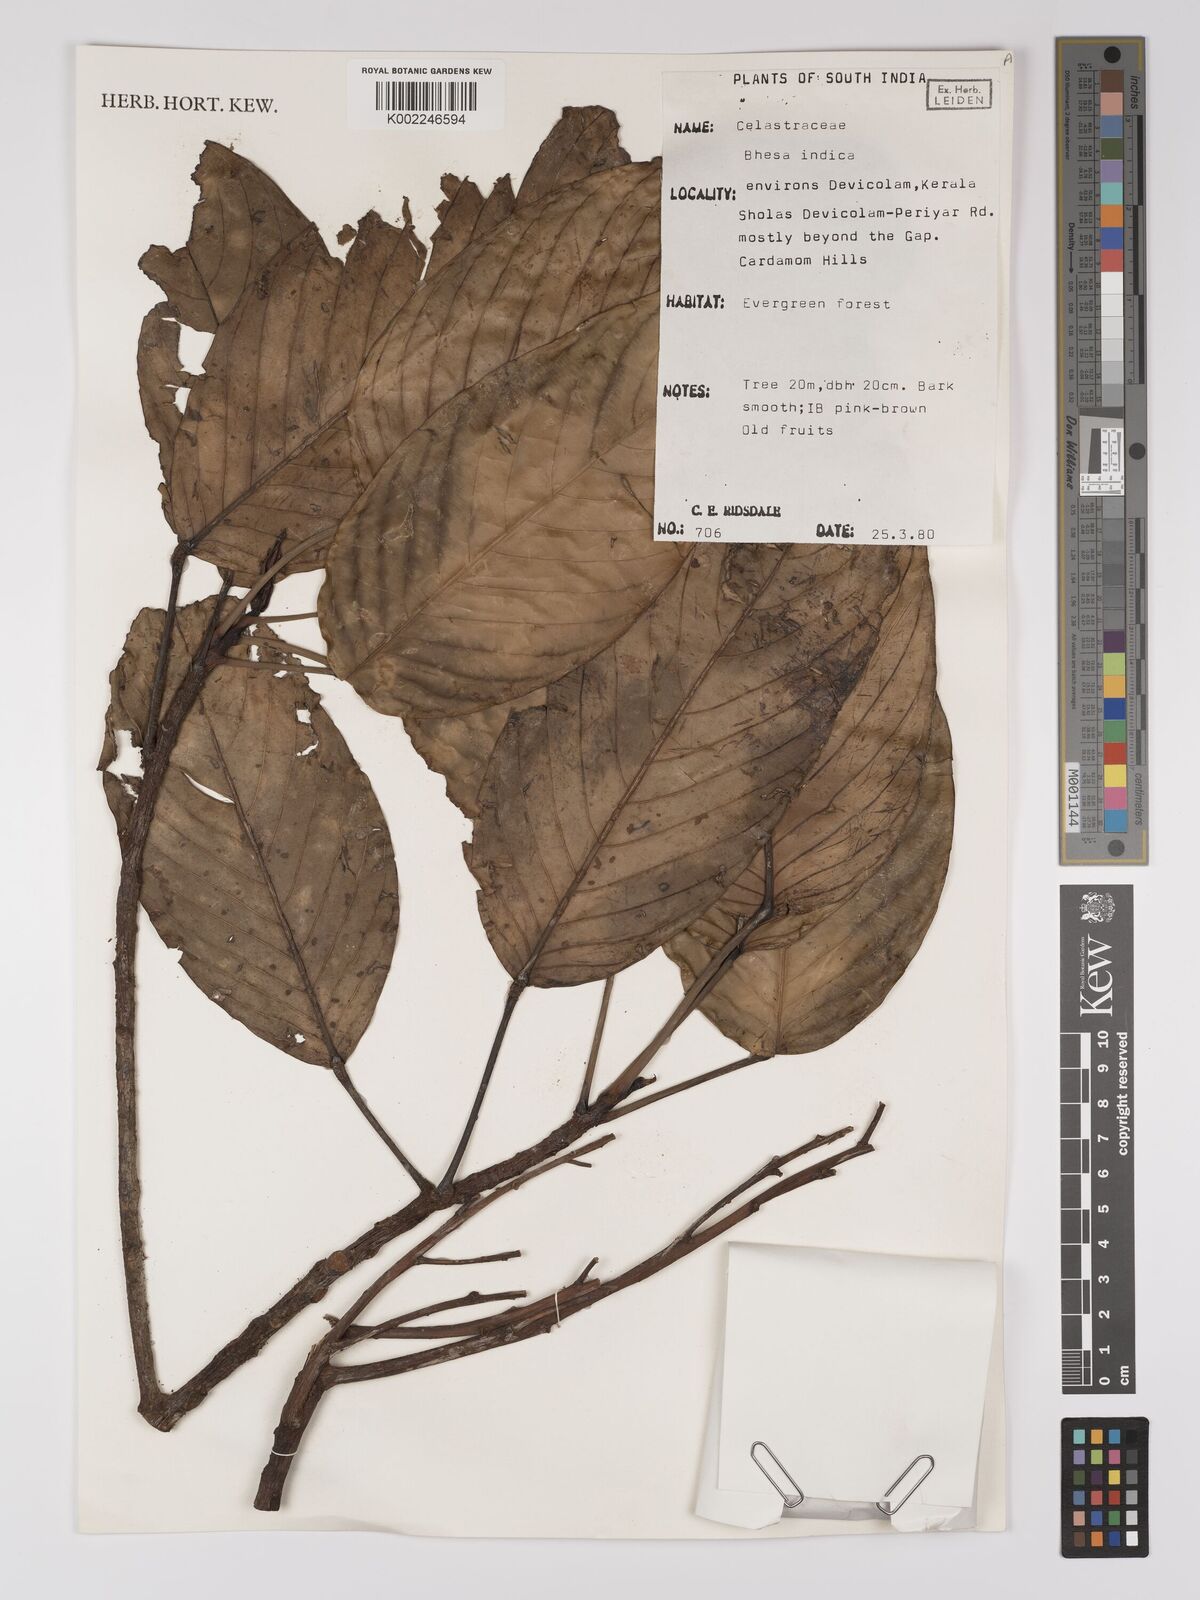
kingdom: Plantae
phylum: Tracheophyta
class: Magnoliopsida
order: Malpighiales
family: Centroplacaceae
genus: Bhesa
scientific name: Bhesa indica
